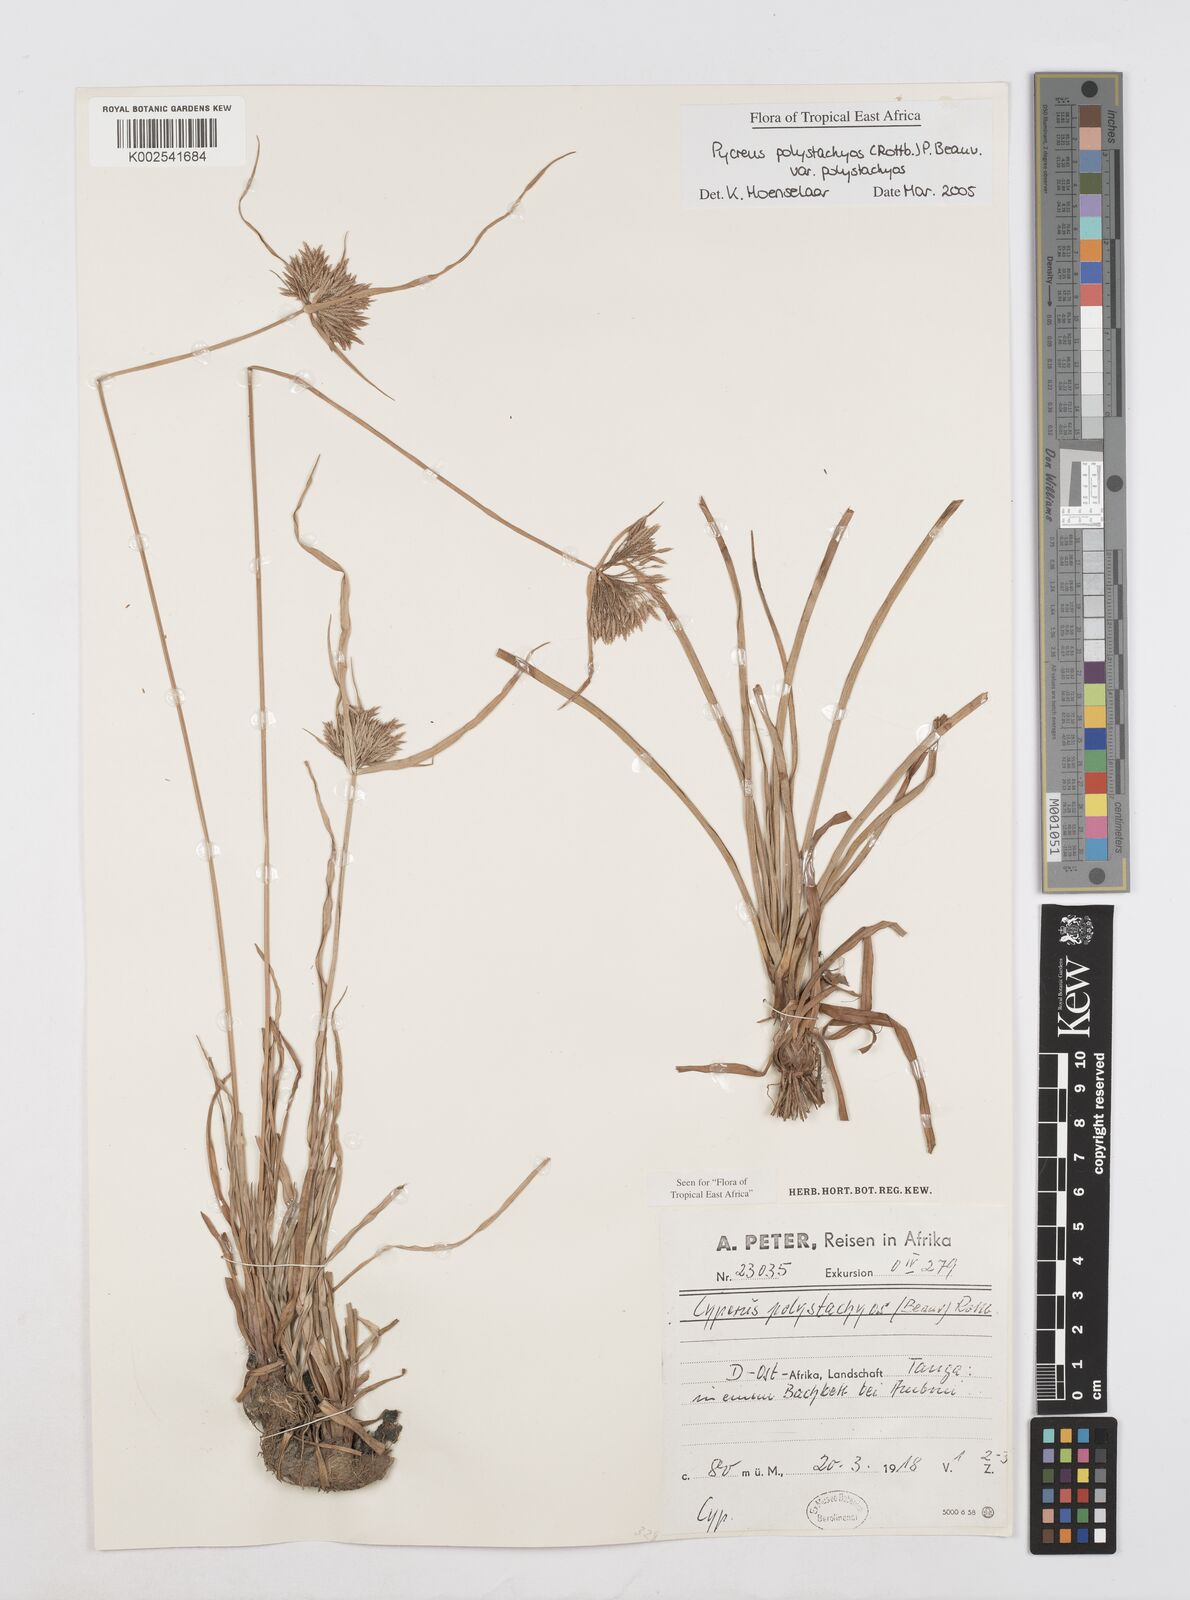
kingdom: Plantae
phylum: Tracheophyta
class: Liliopsida
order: Poales
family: Cyperaceae
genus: Cyperus
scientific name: Cyperus polystachyos
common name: Bunchy flat sedge
